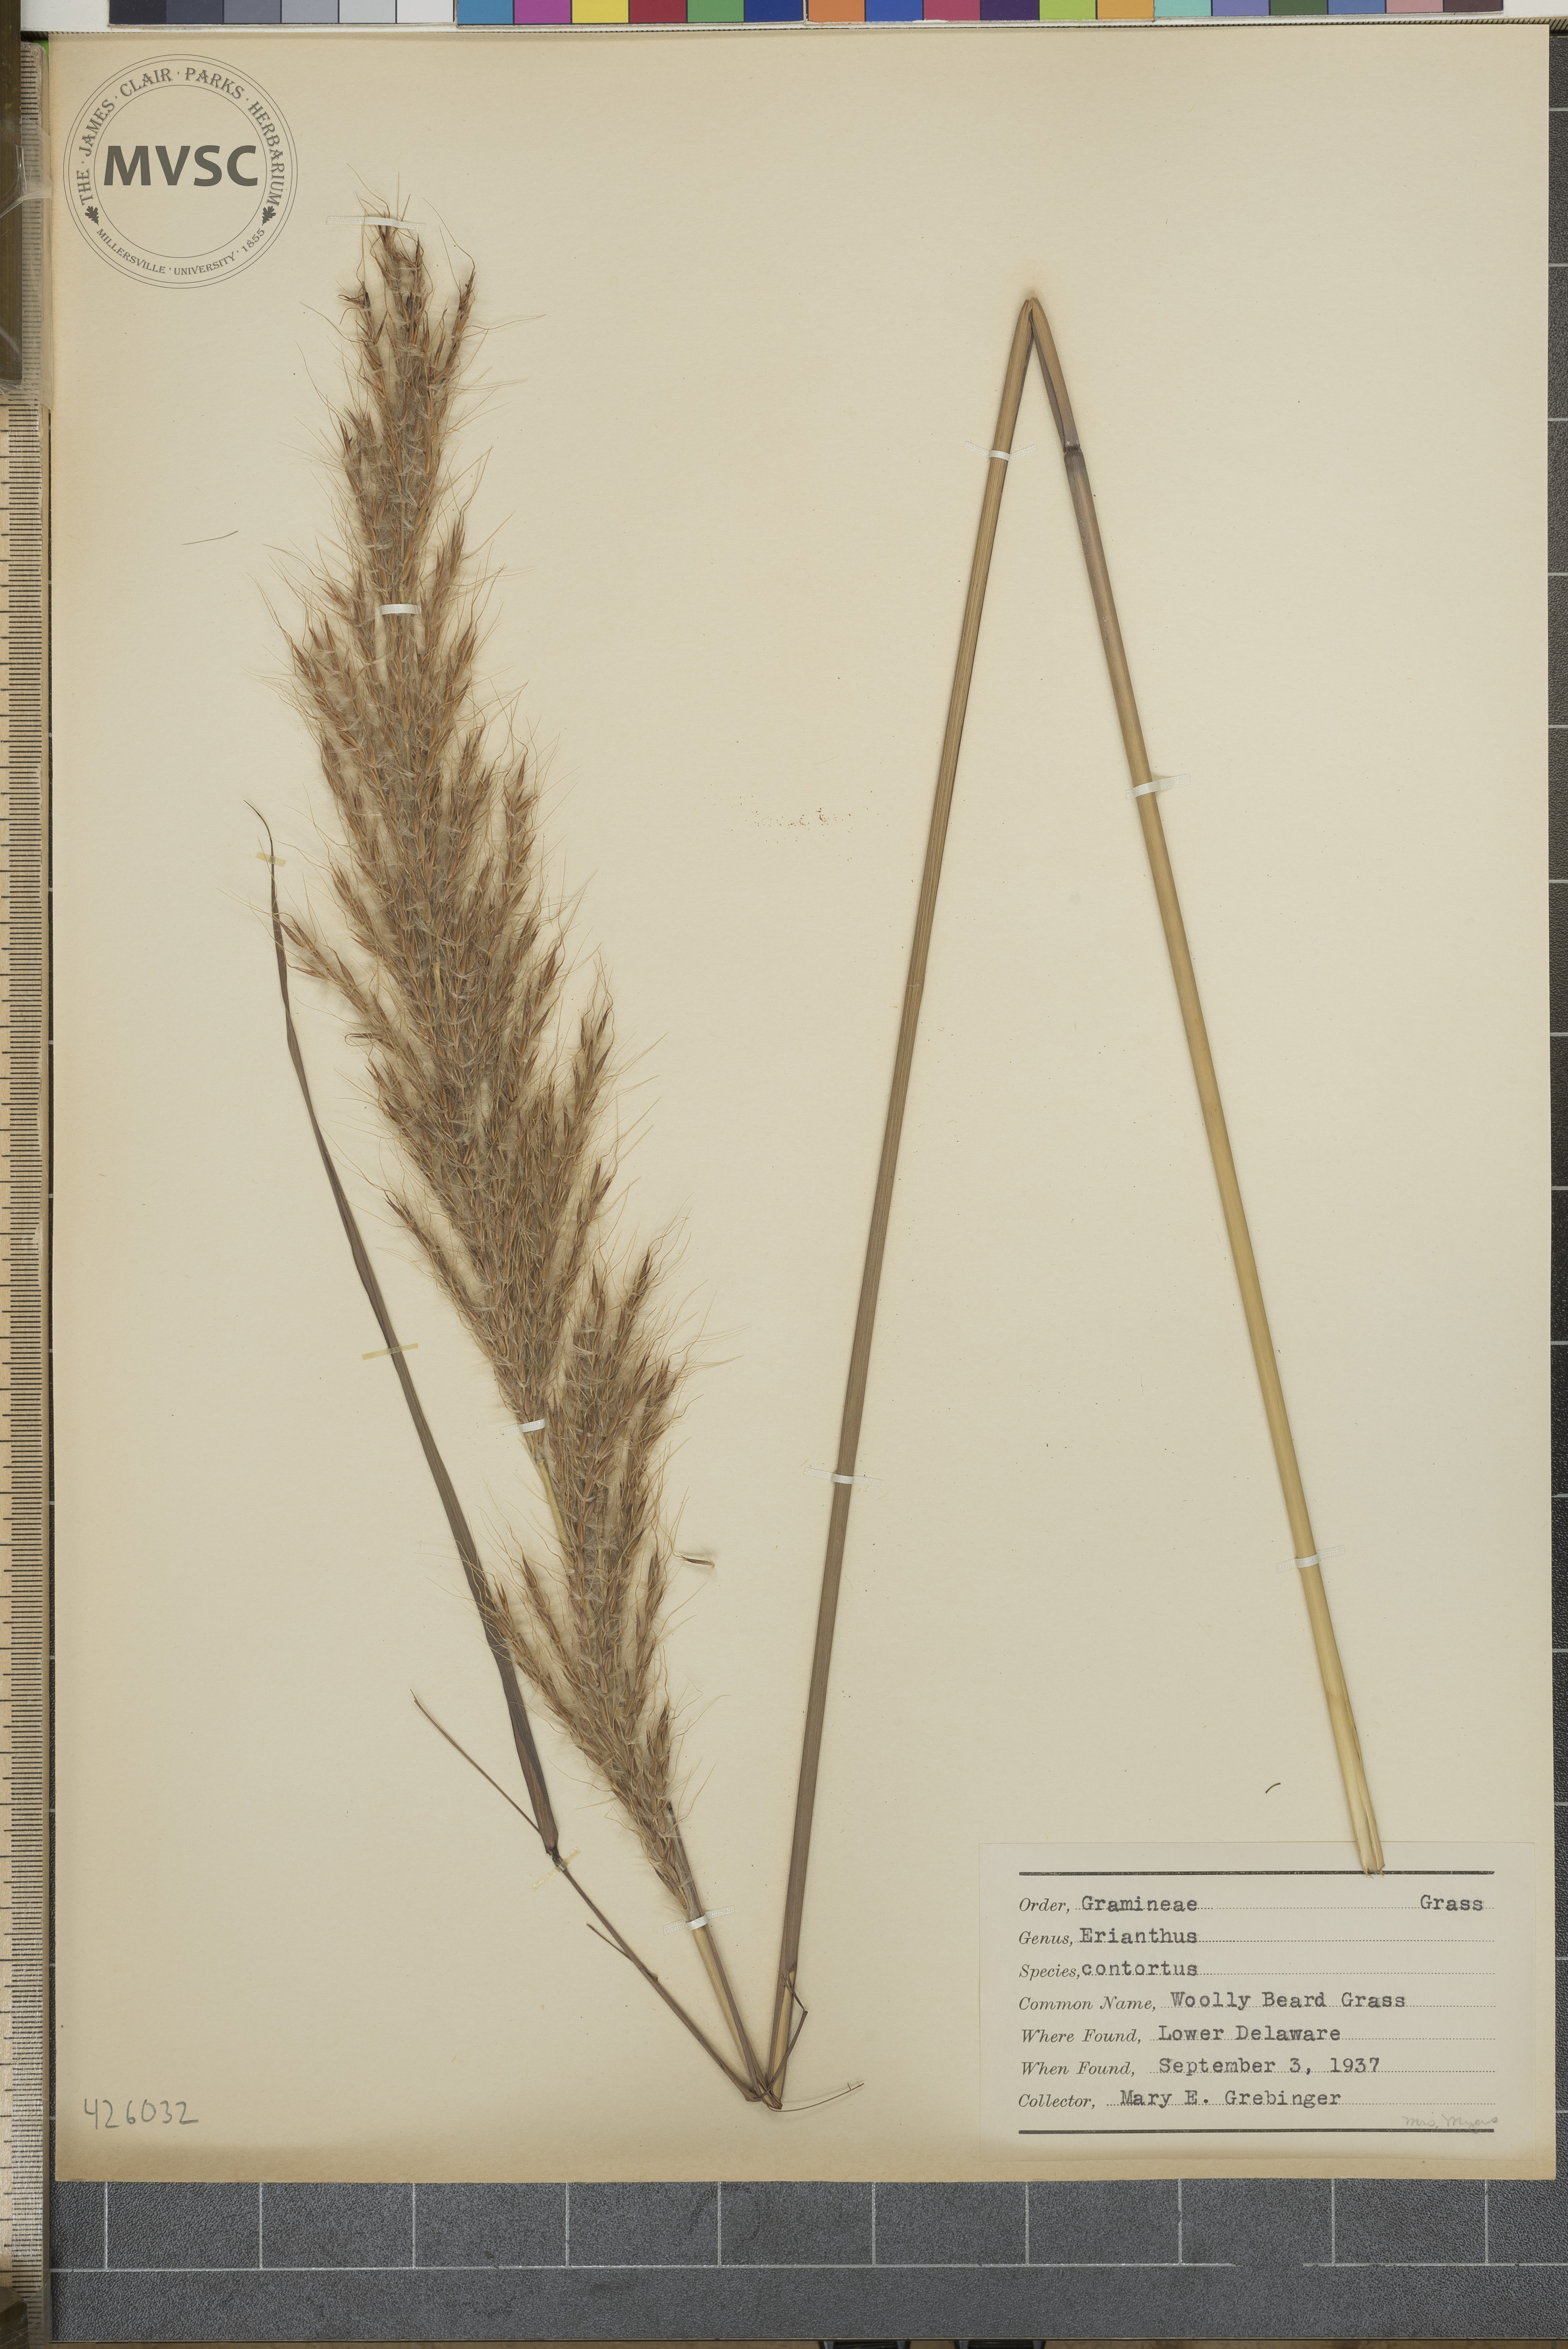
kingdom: Plantae
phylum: Tracheophyta
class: Liliopsida
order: Poales
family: Poaceae
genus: Erianthus
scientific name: Erianthus brevibarbis
